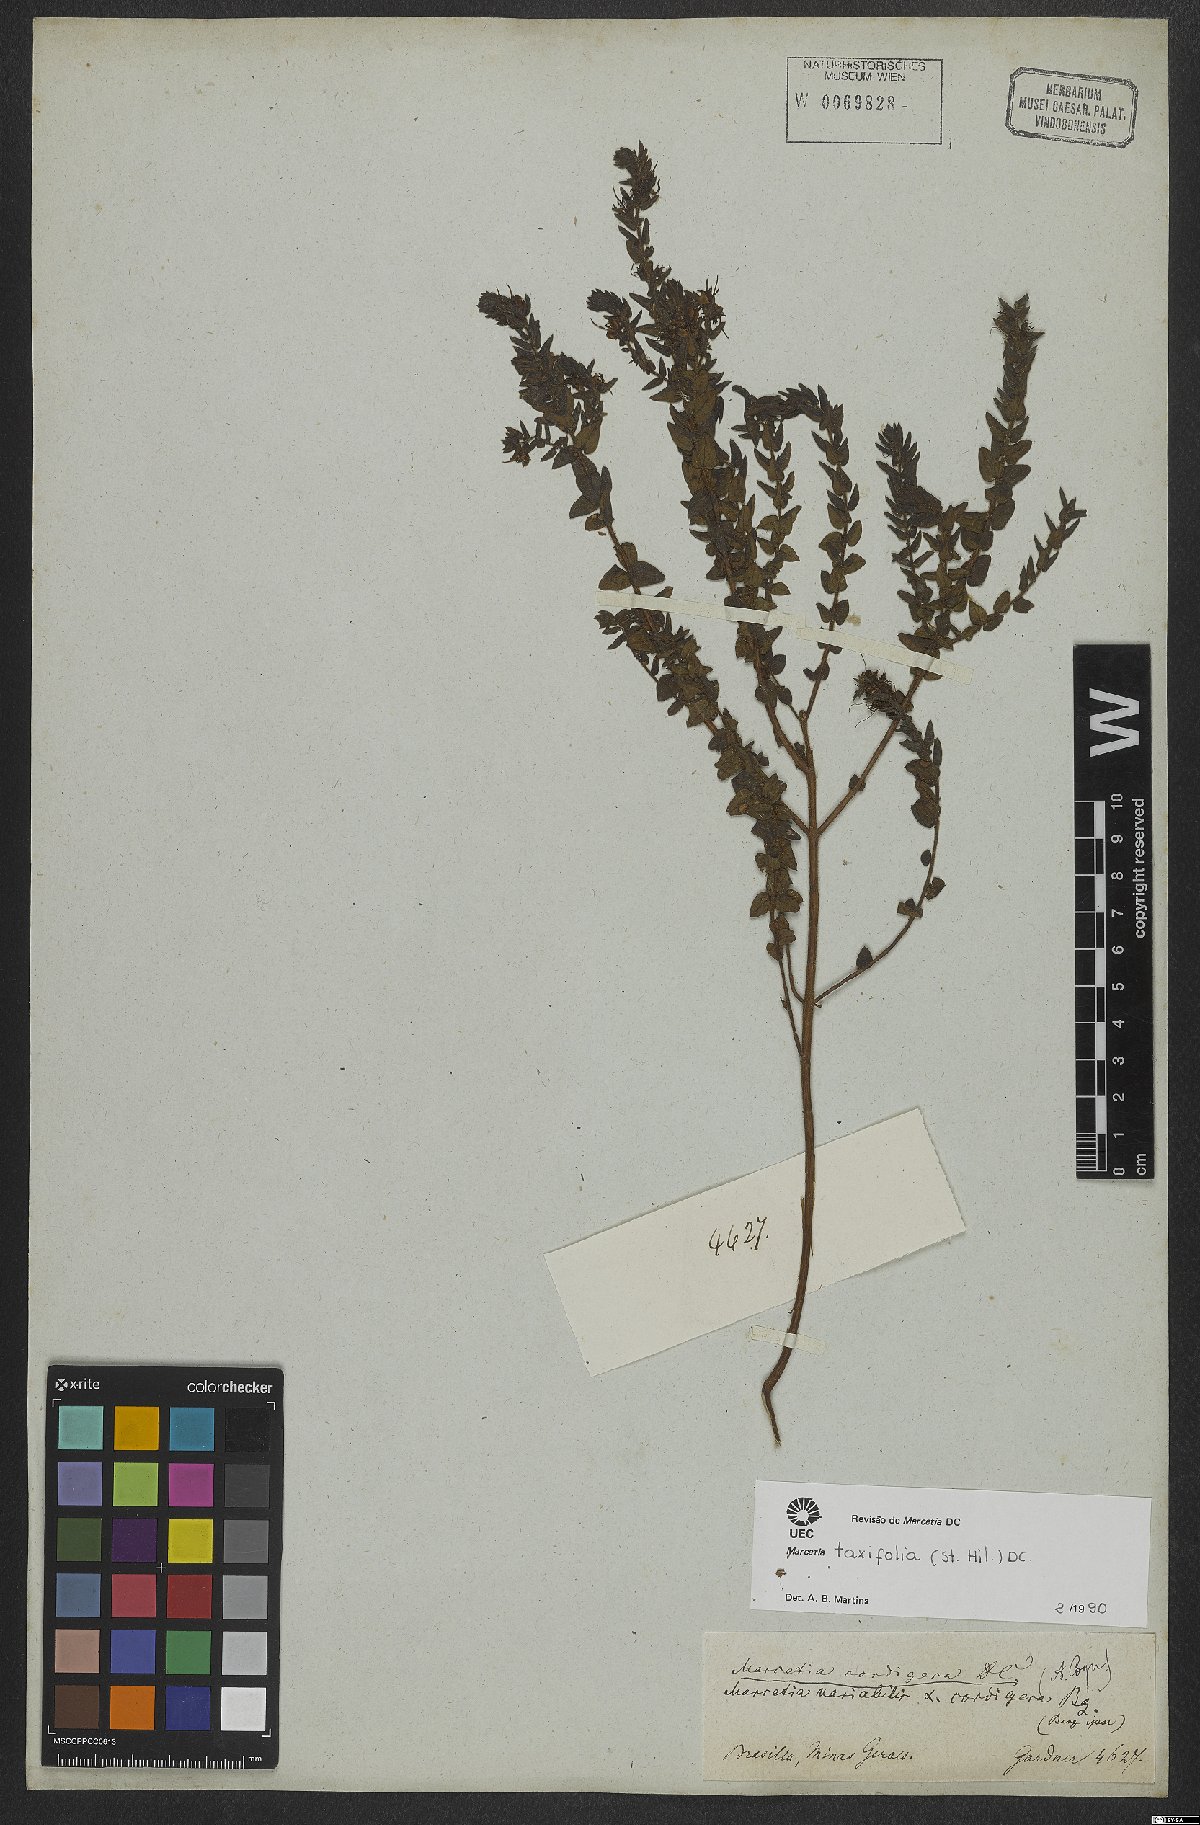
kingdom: Plantae
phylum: Tracheophyta
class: Magnoliopsida
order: Myrtales
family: Melastomataceae
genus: Marcetia
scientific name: Marcetia taxifolia
